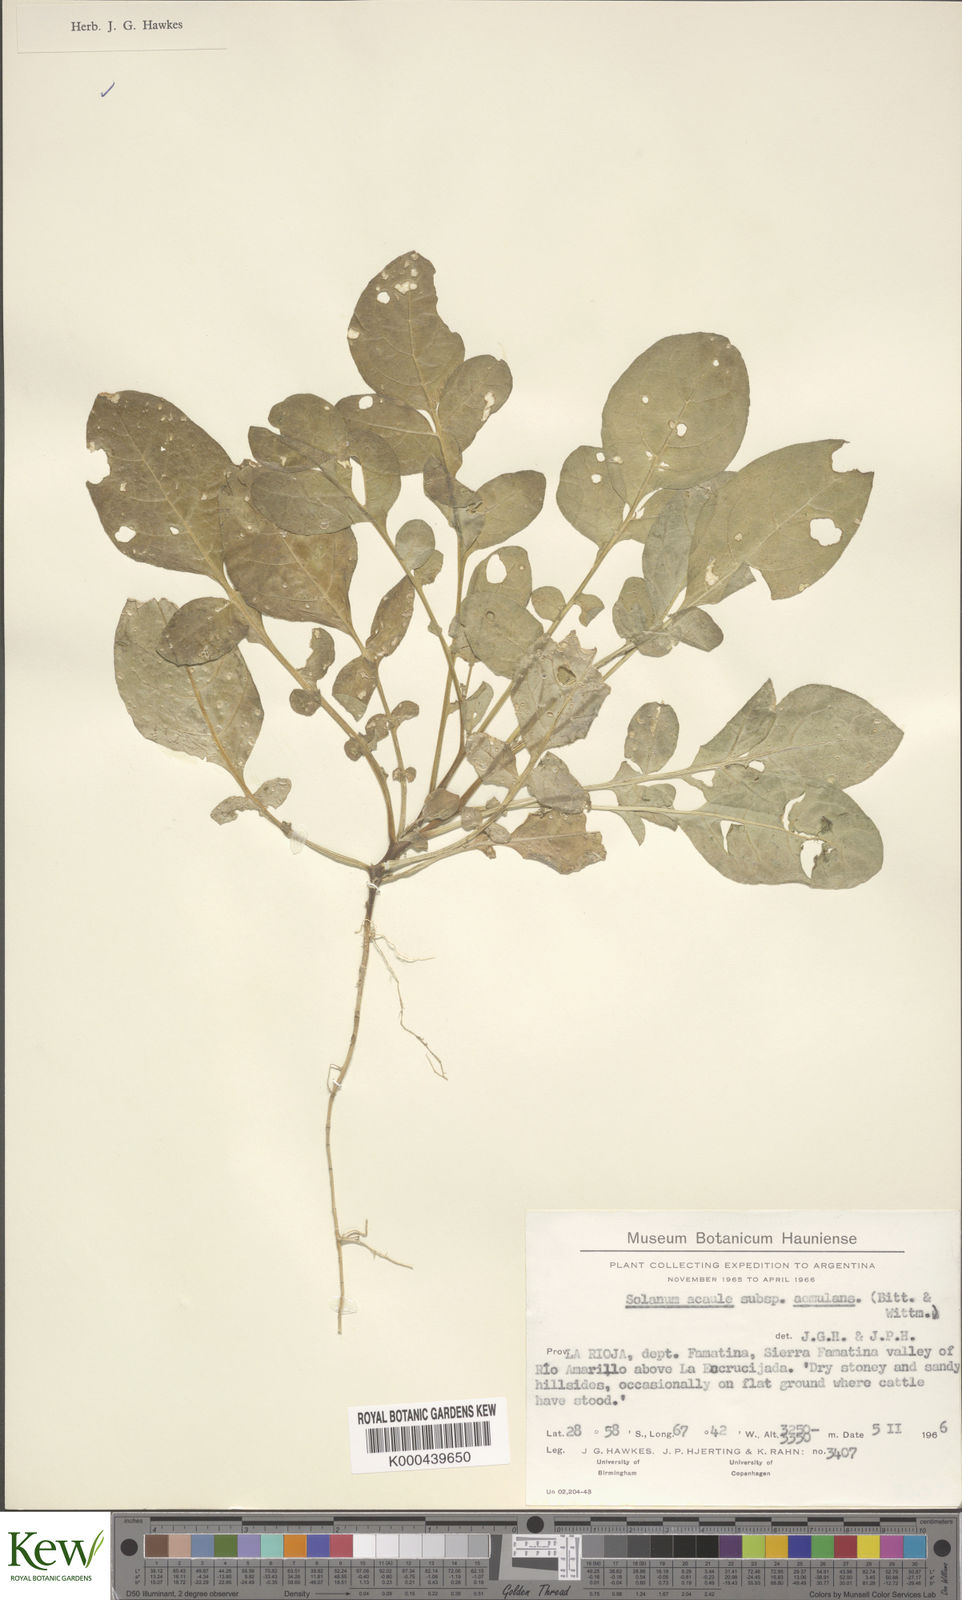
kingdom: Plantae
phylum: Tracheophyta
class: Magnoliopsida
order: Solanales
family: Solanaceae
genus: Solanum
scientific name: Solanum aemulans
